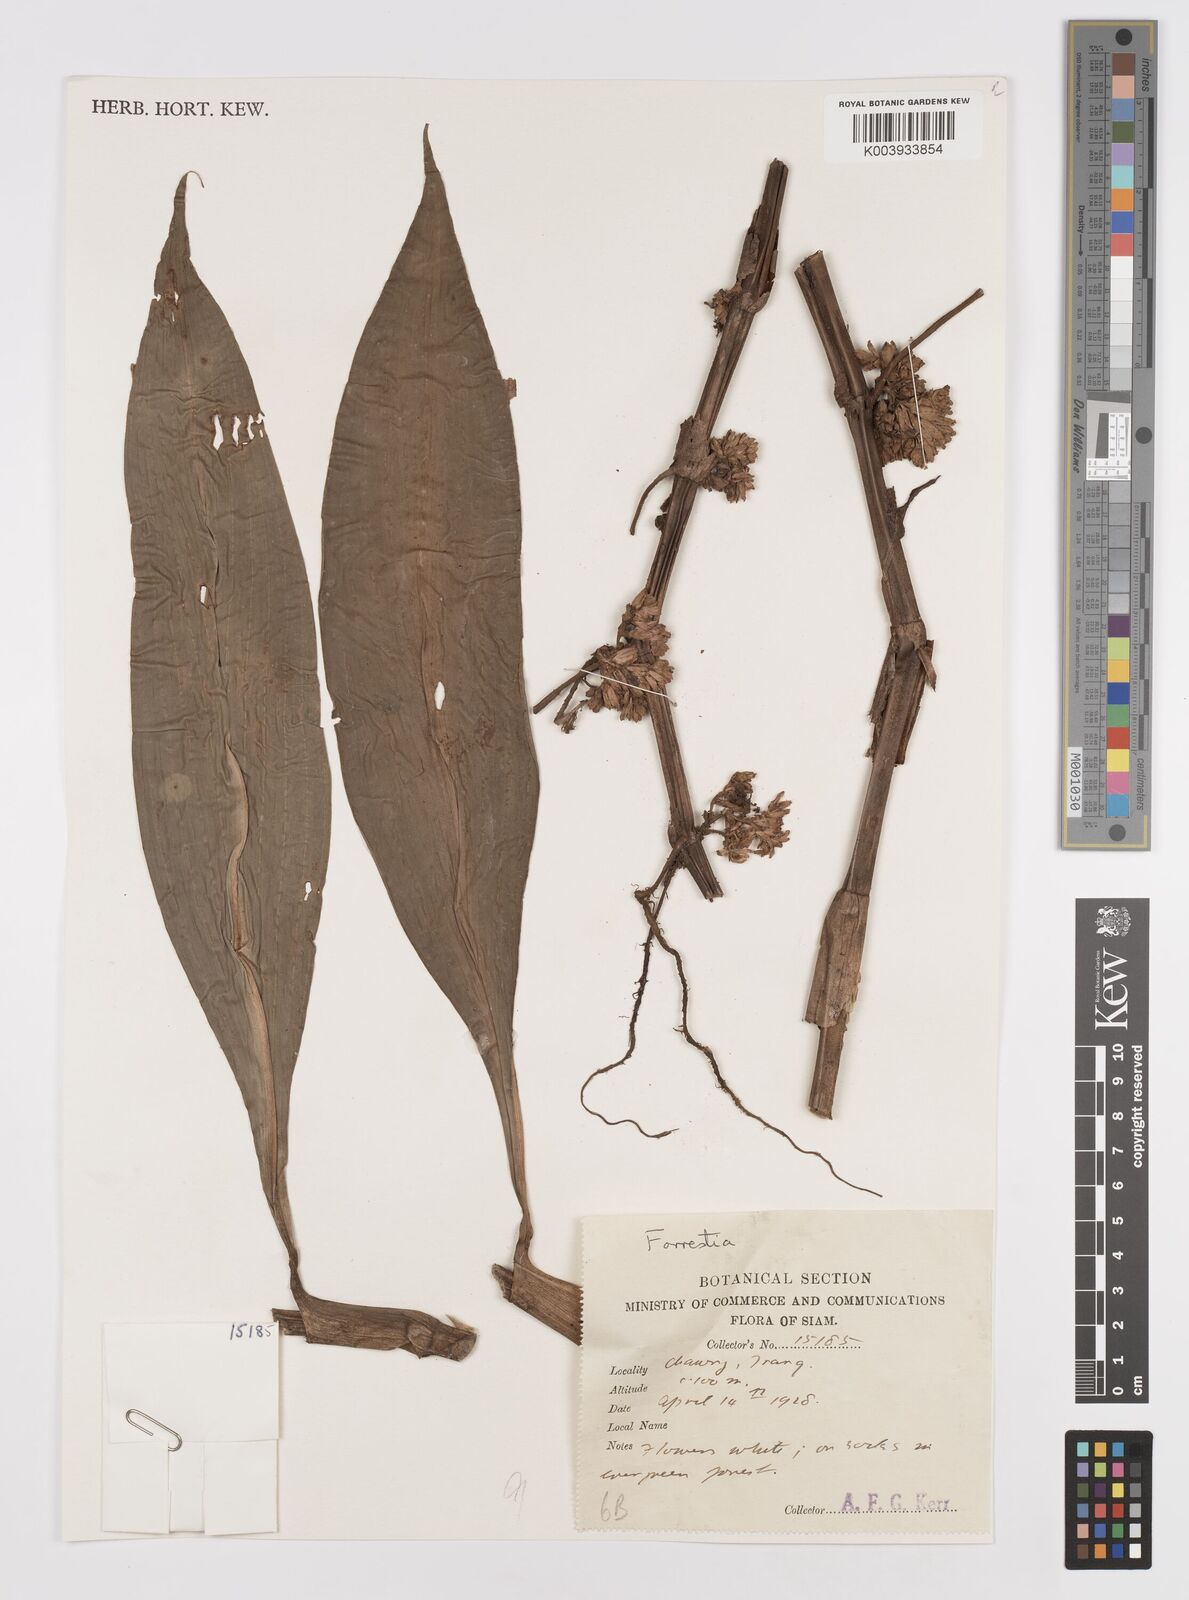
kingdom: Plantae
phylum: Tracheophyta
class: Liliopsida
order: Commelinales
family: Commelinaceae
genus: Amischotolype
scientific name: Amischotolype marginata
